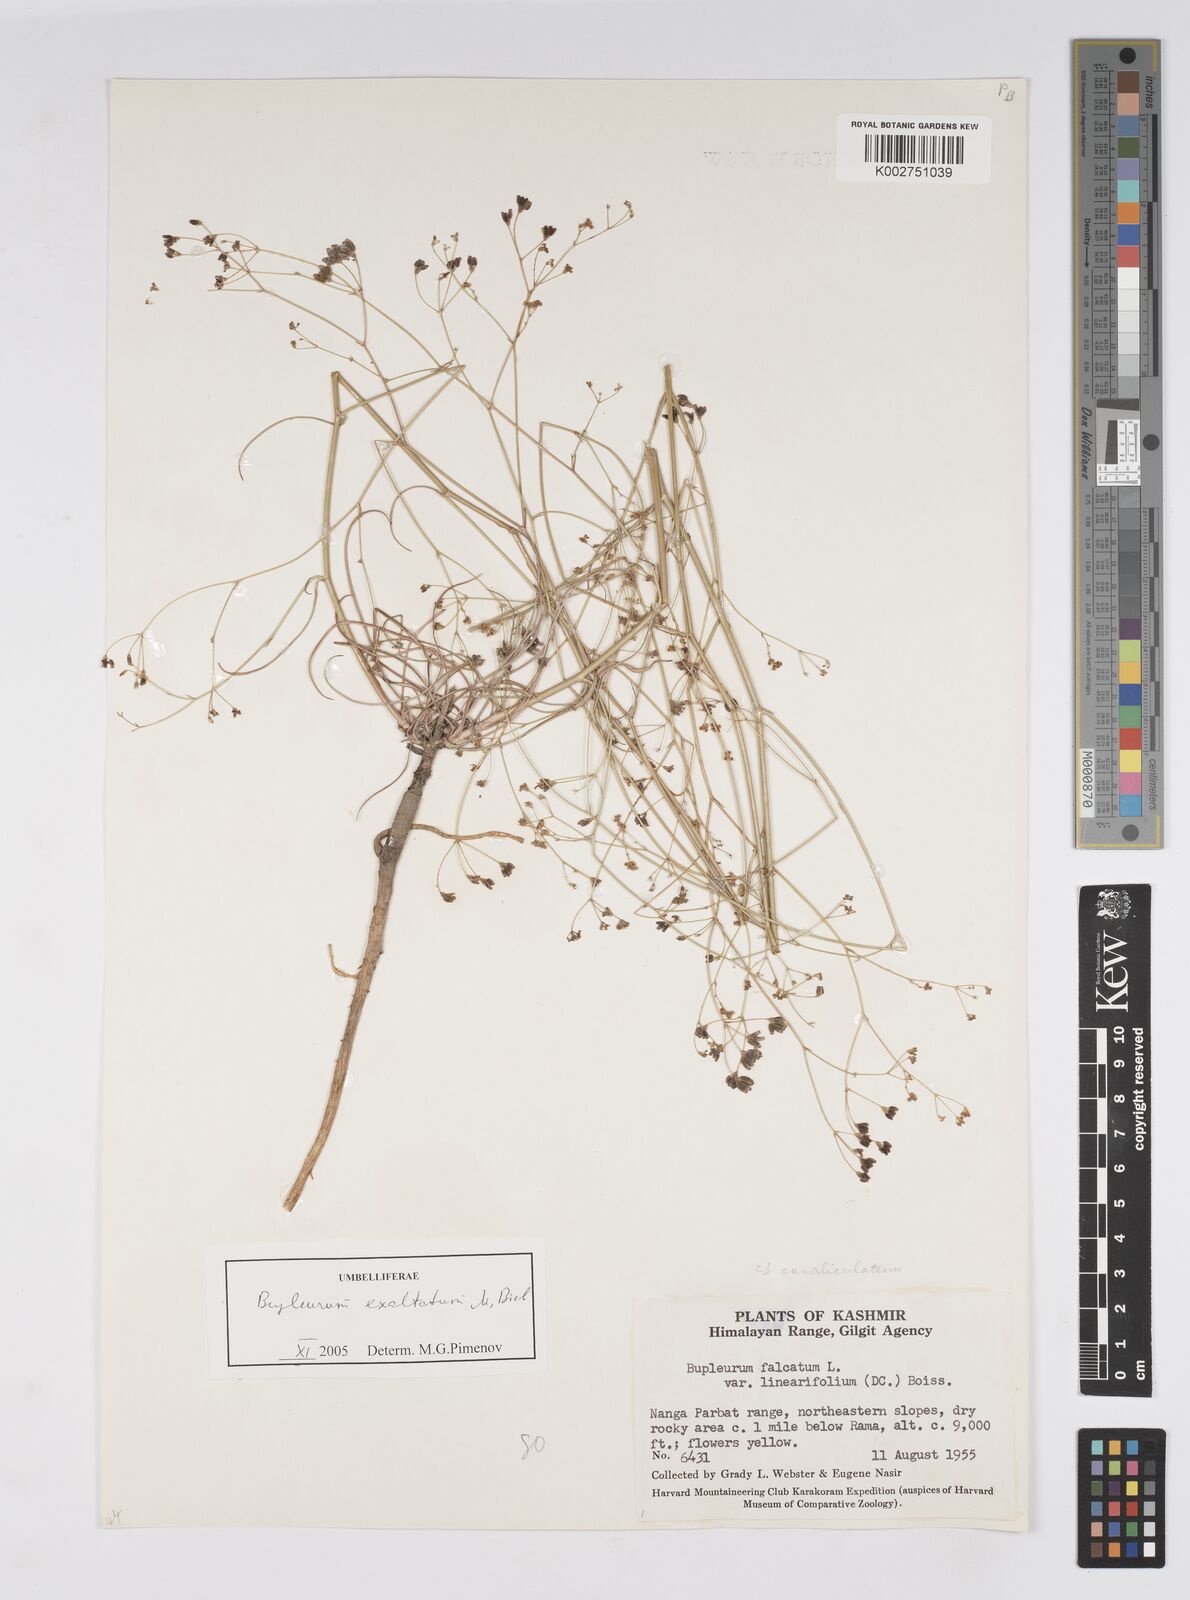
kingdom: Plantae
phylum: Tracheophyta
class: Magnoliopsida
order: Apiales
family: Apiaceae
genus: Bupleurum
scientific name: Bupleurum falcatum
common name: Sickle-leaved hare's-ear
